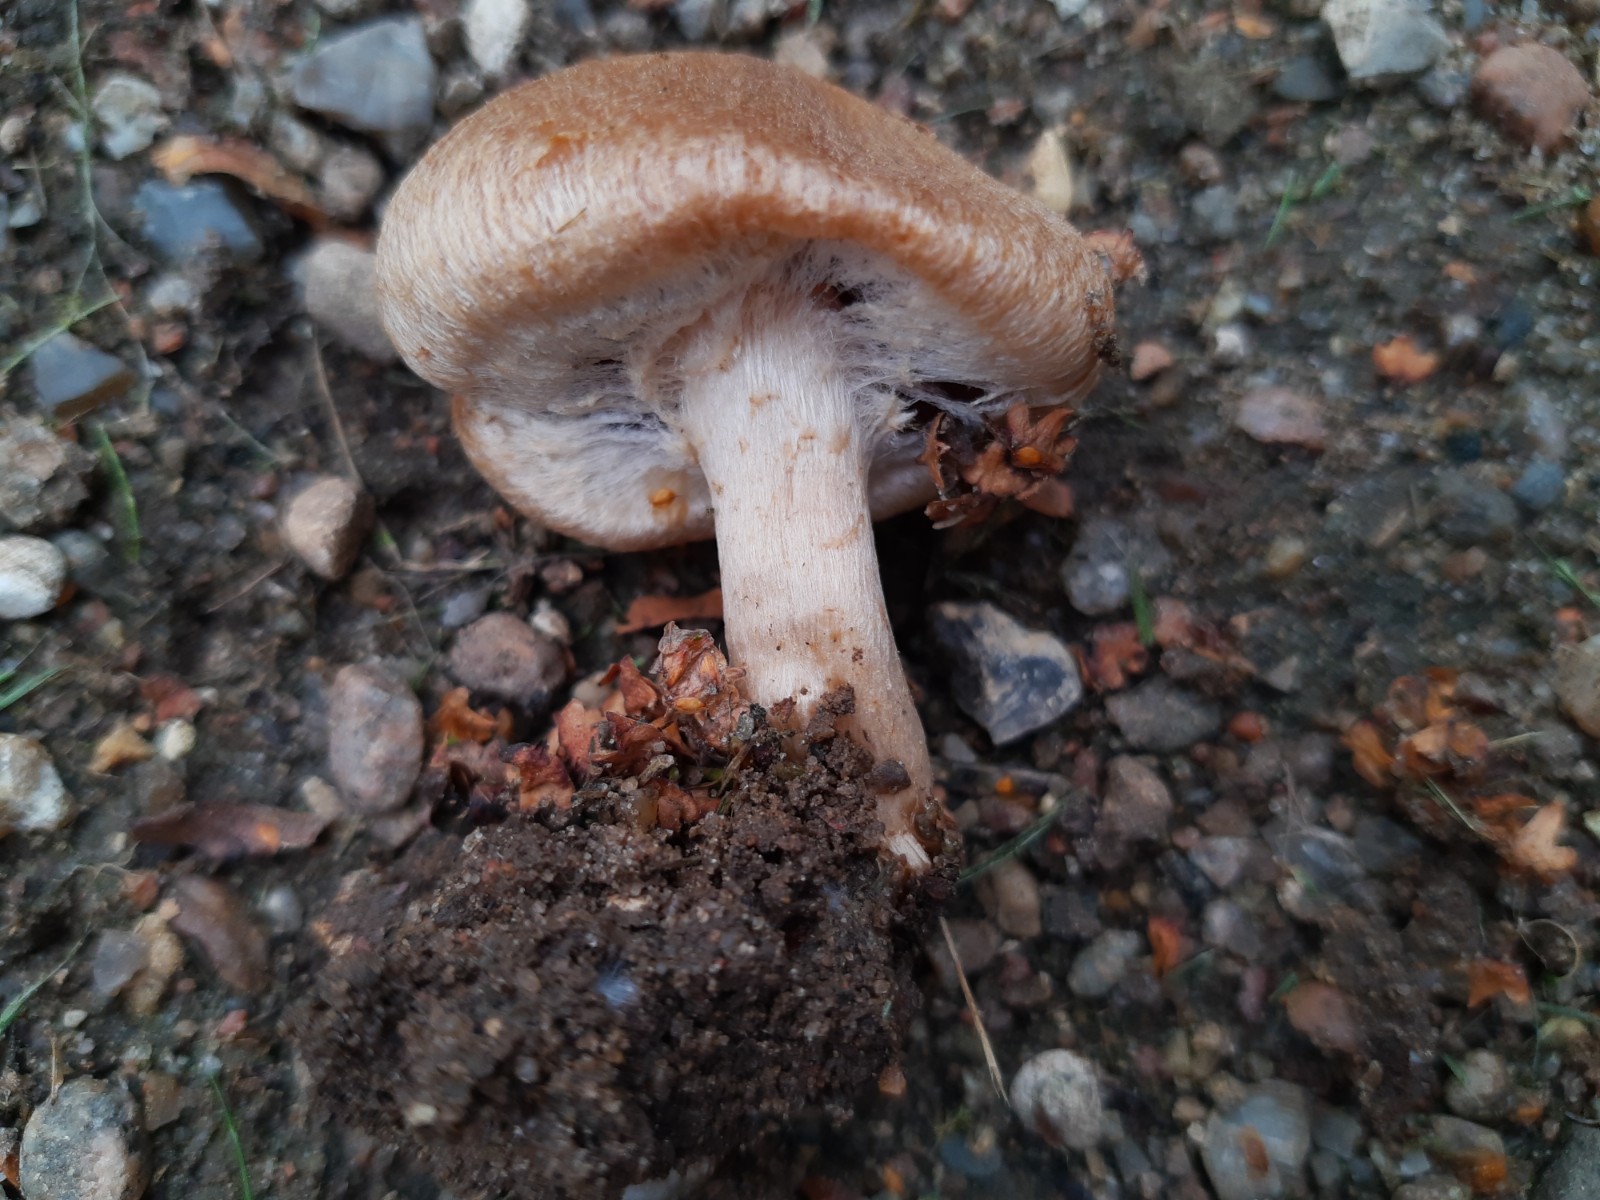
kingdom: Fungi
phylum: Basidiomycota
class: Agaricomycetes
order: Agaricales
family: Psathyrellaceae
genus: Lacrymaria
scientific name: Lacrymaria lacrymabunda
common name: grædende mørkhat
